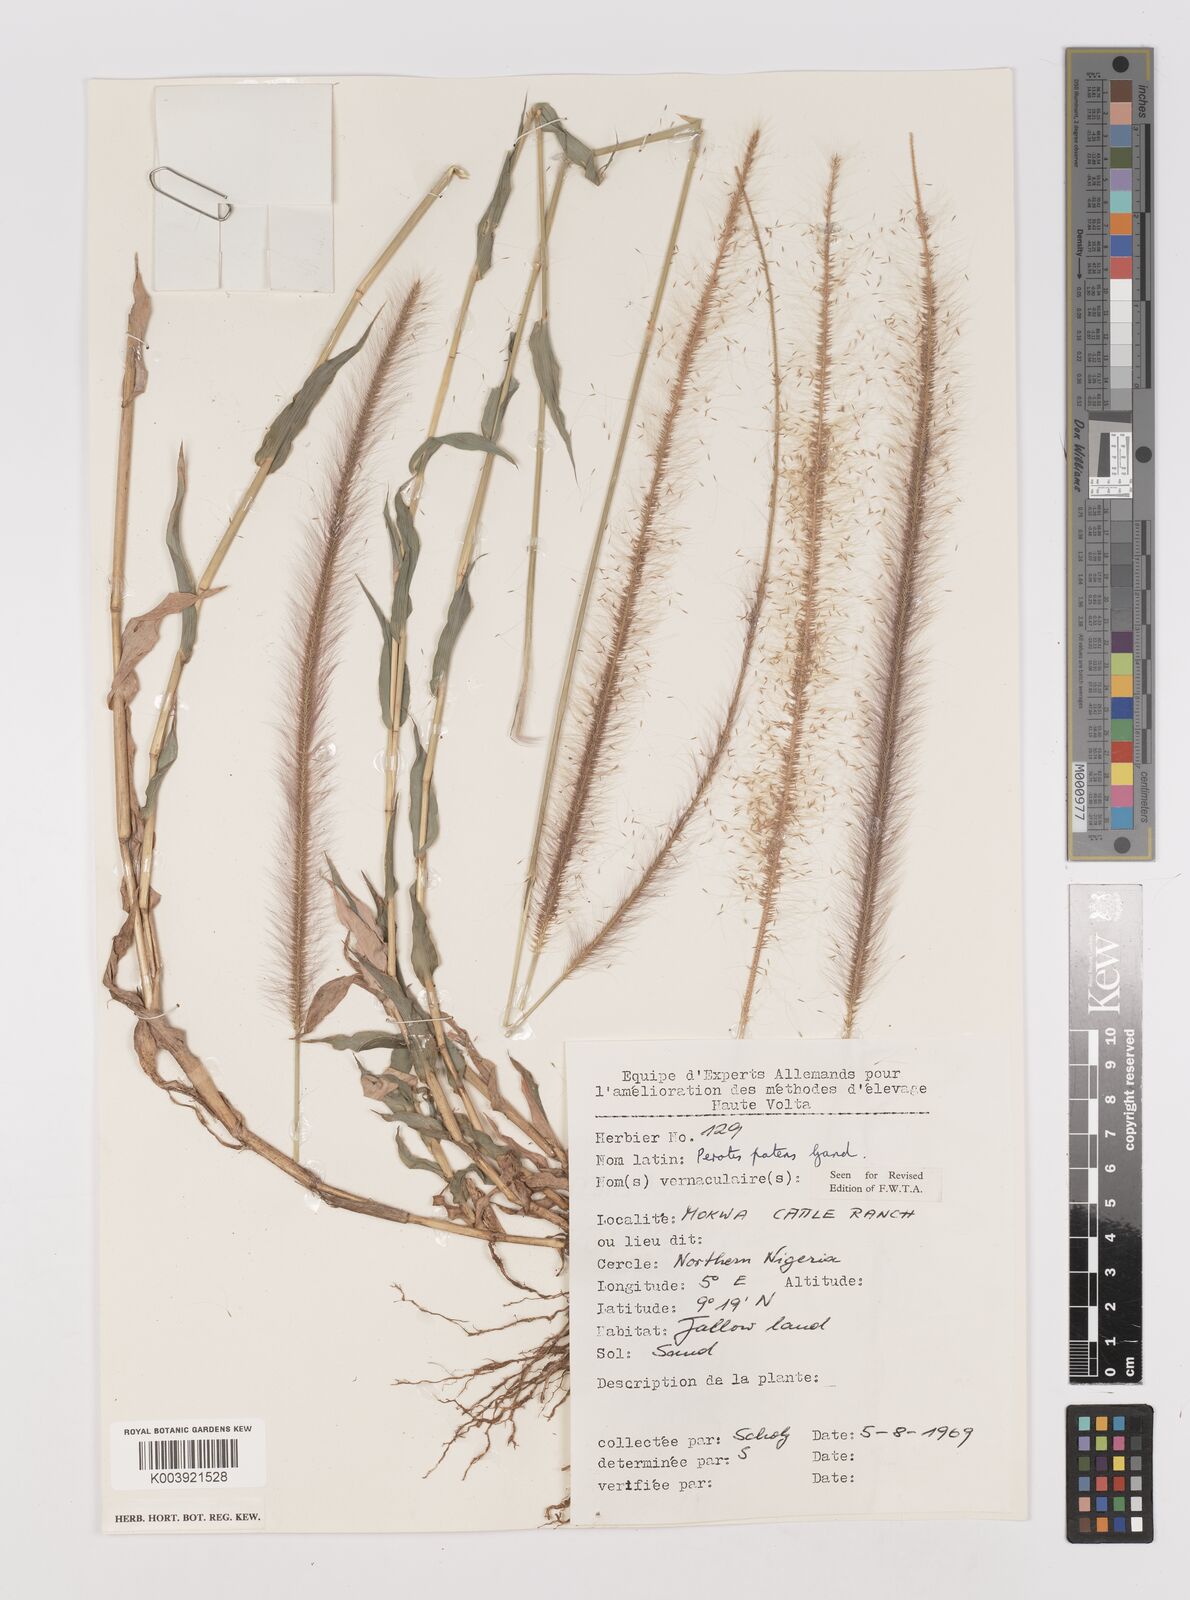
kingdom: Plantae
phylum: Tracheophyta
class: Liliopsida
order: Poales
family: Poaceae
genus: Perotis
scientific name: Perotis patens
